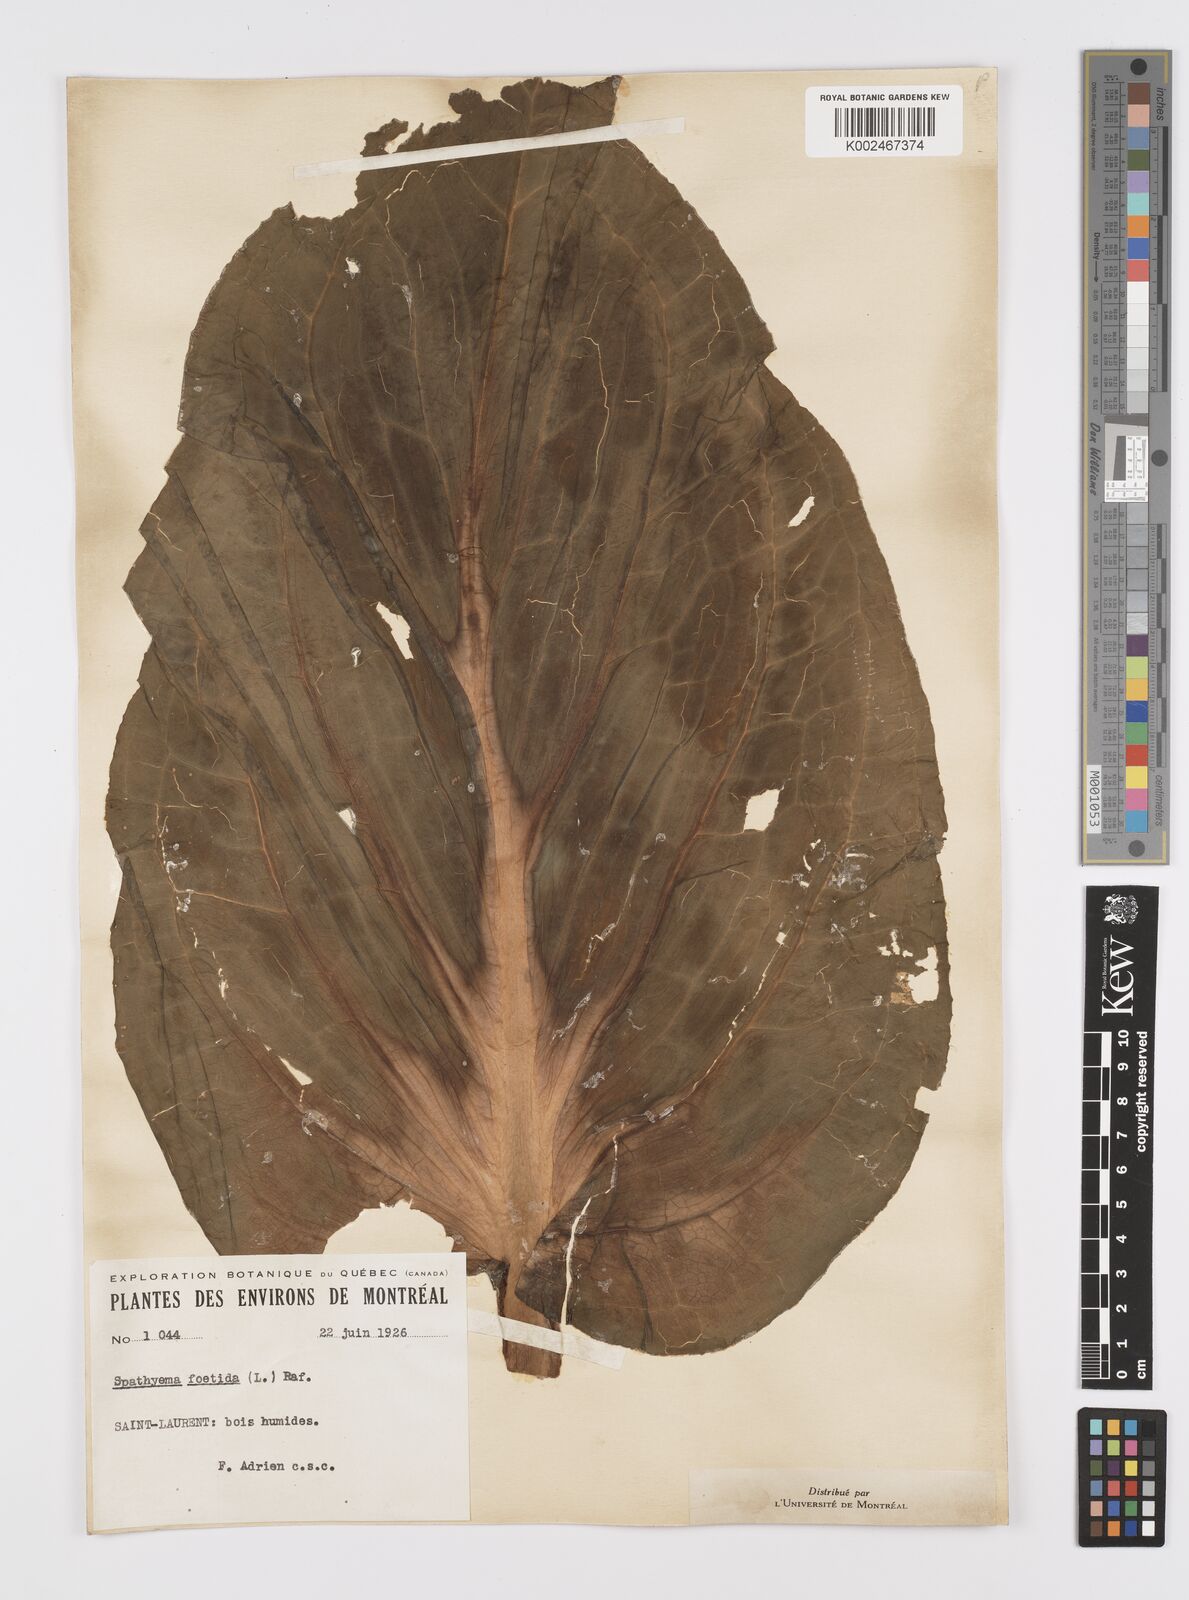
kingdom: Plantae
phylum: Tracheophyta
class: Liliopsida
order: Alismatales
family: Araceae
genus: Symplocarpus
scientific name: Symplocarpus foetidus
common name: Eastern skunk cabbage
